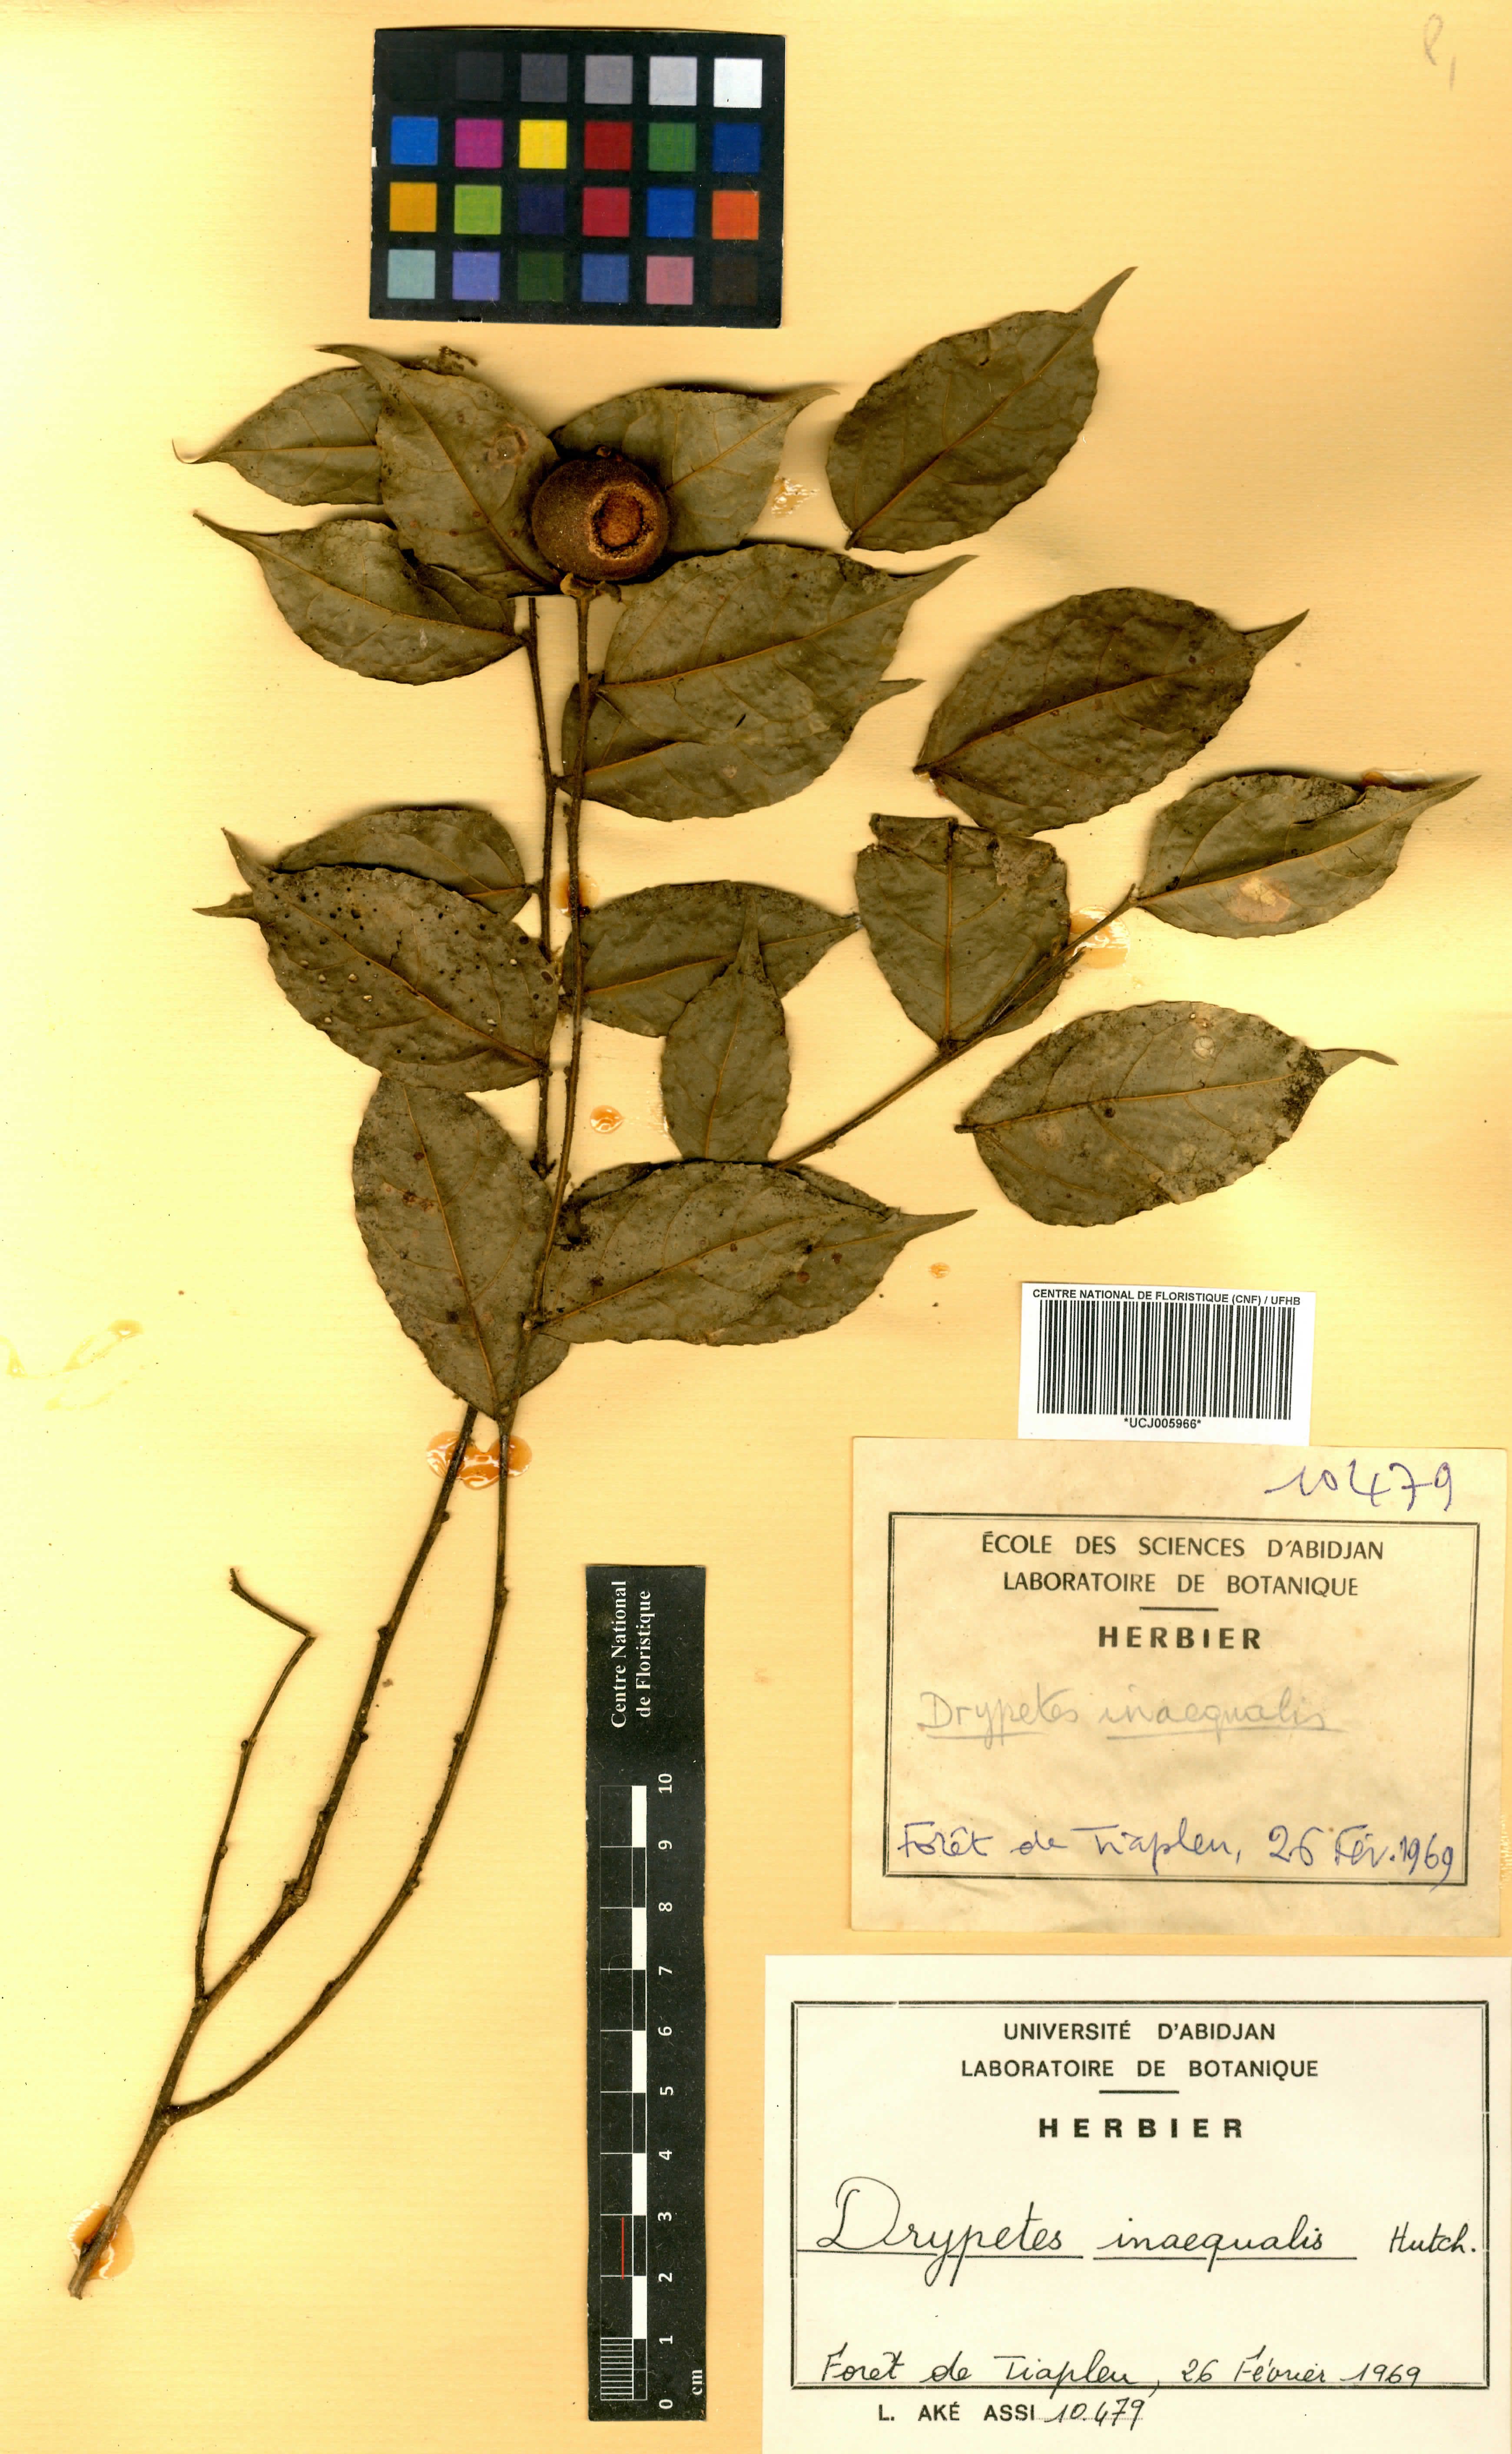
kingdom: Plantae
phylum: Tracheophyta
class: Magnoliopsida
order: Malpighiales
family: Putranjivaceae
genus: Drypetes
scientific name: Drypetes inaequalis
